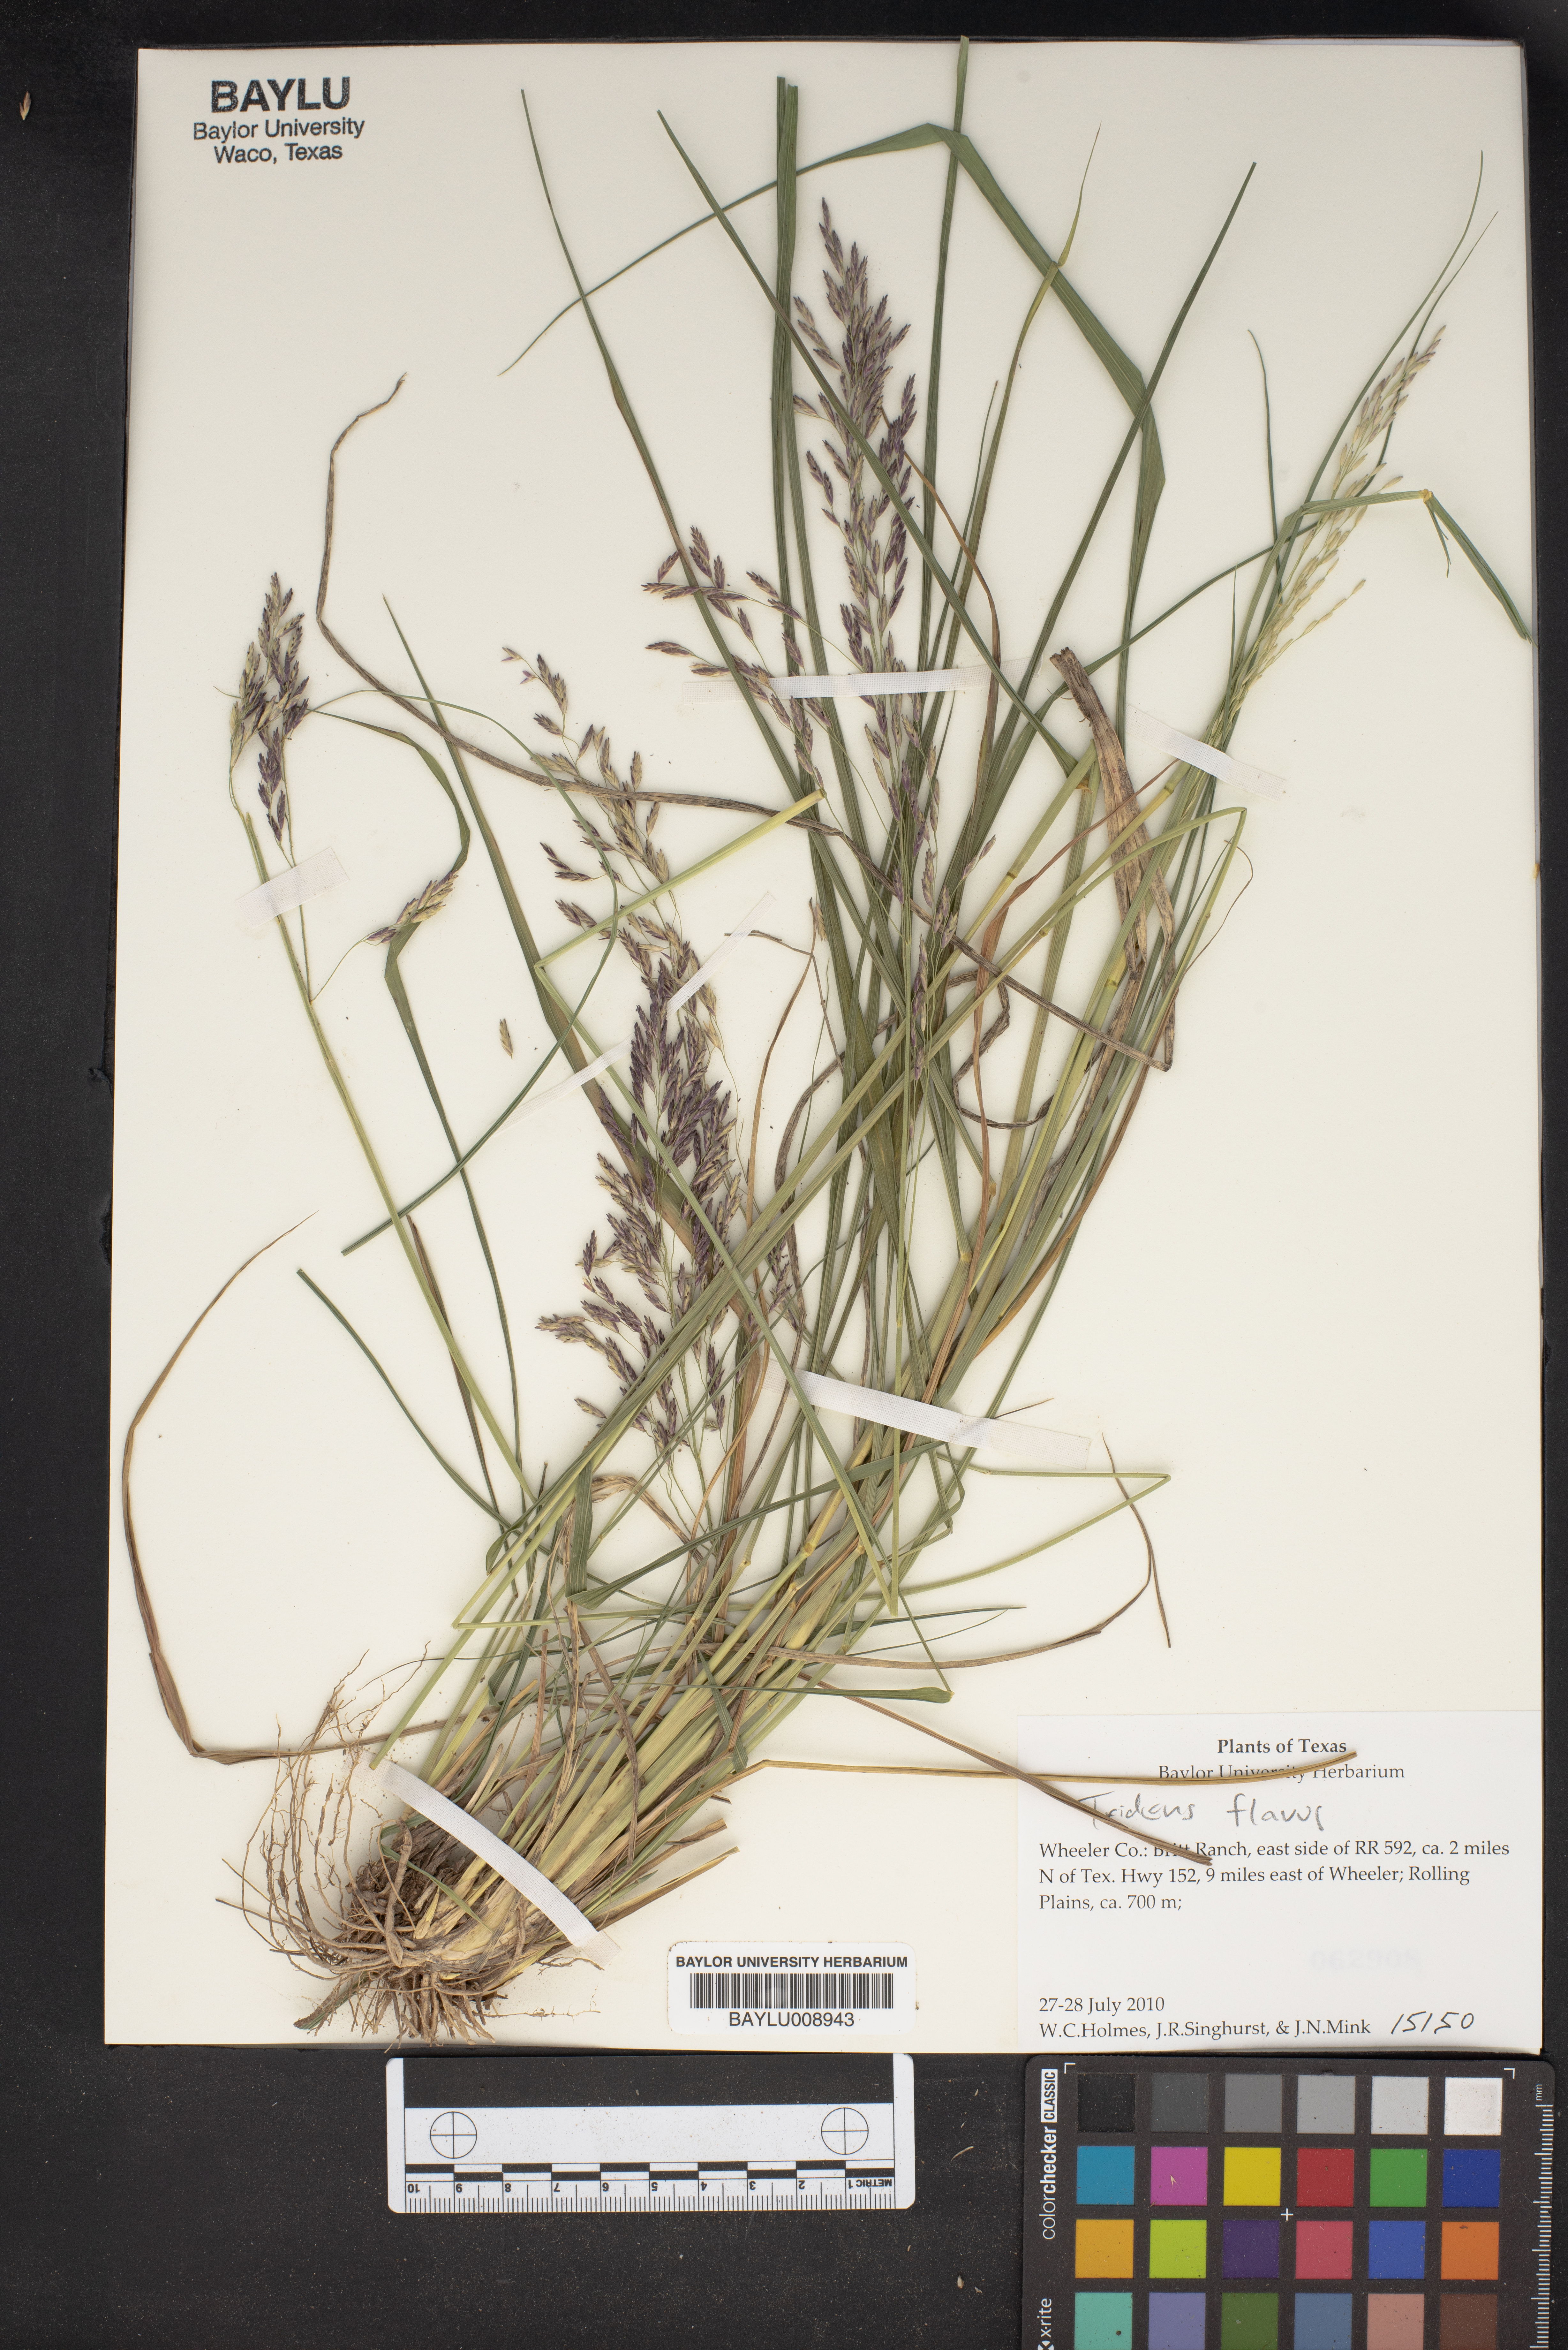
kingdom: Plantae
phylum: Tracheophyta
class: Liliopsida
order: Poales
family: Poaceae
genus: Tridens
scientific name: Tridens flavus
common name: Purpletop
